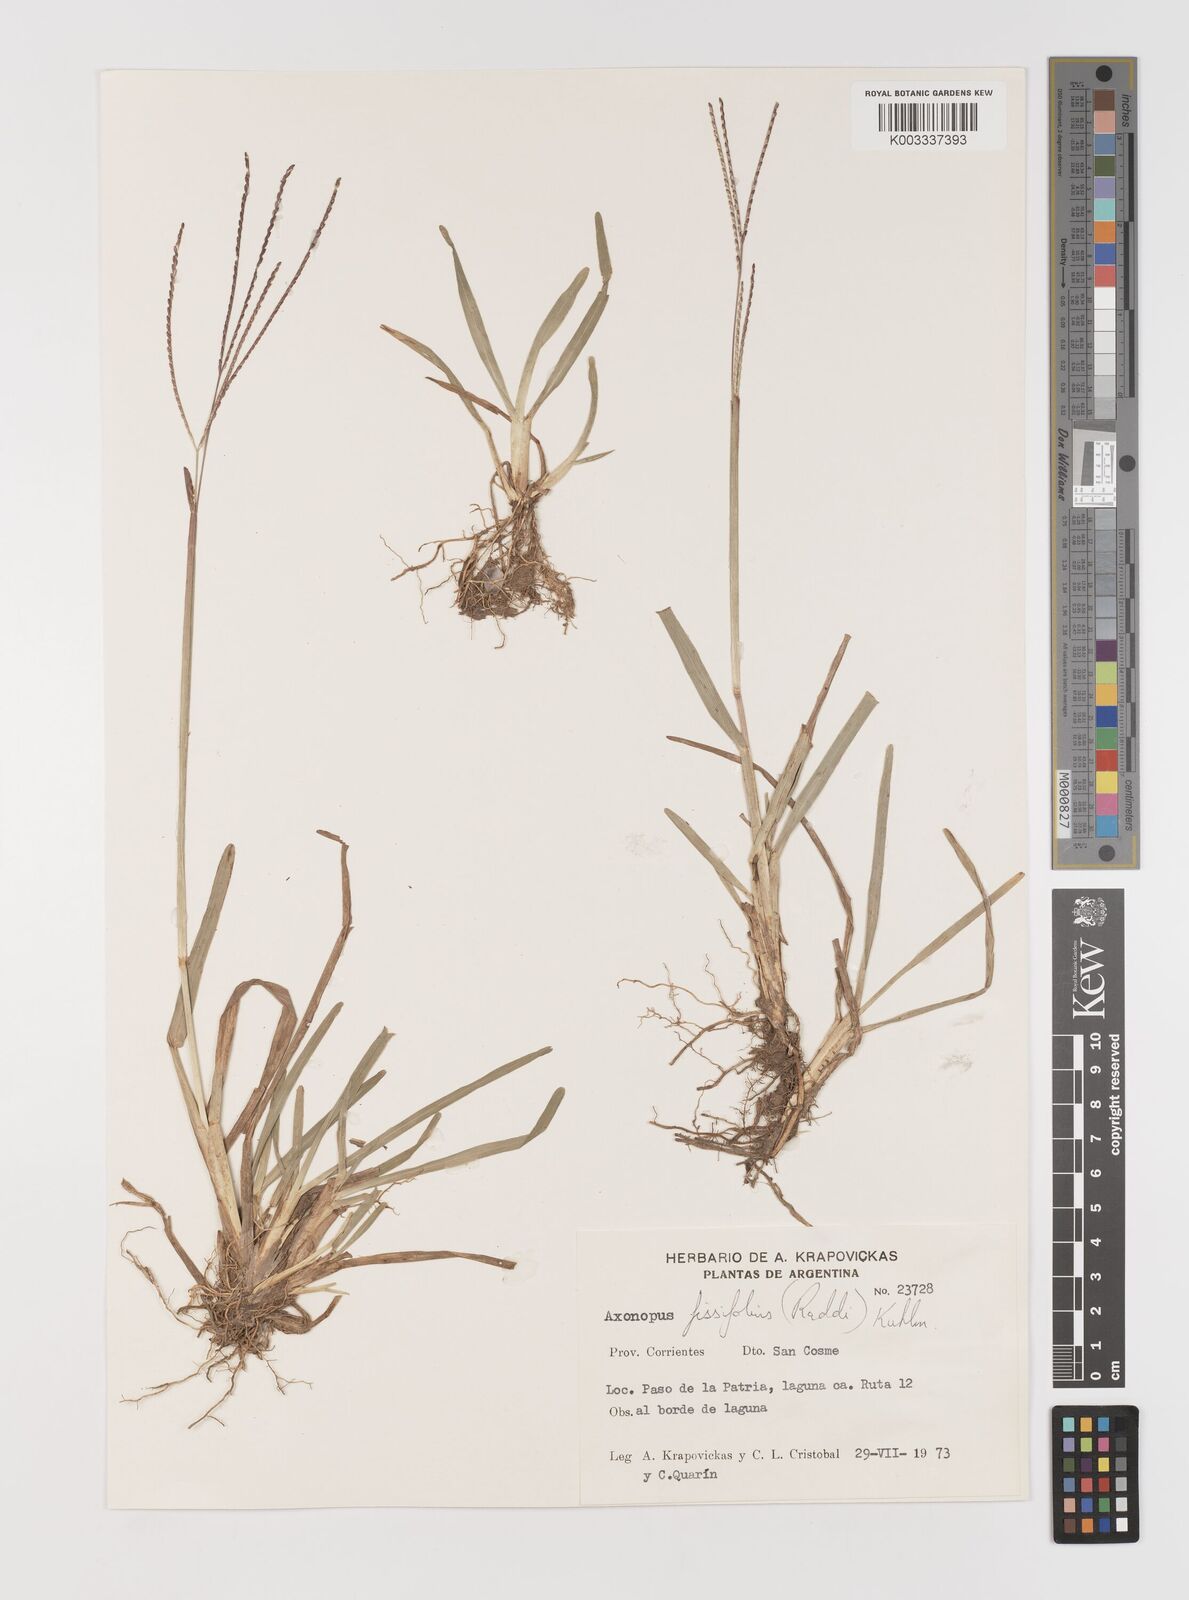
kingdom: Plantae
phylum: Tracheophyta
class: Liliopsida
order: Poales
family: Poaceae
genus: Axonopus
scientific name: Axonopus fissifolius
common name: Common carpetgrass
